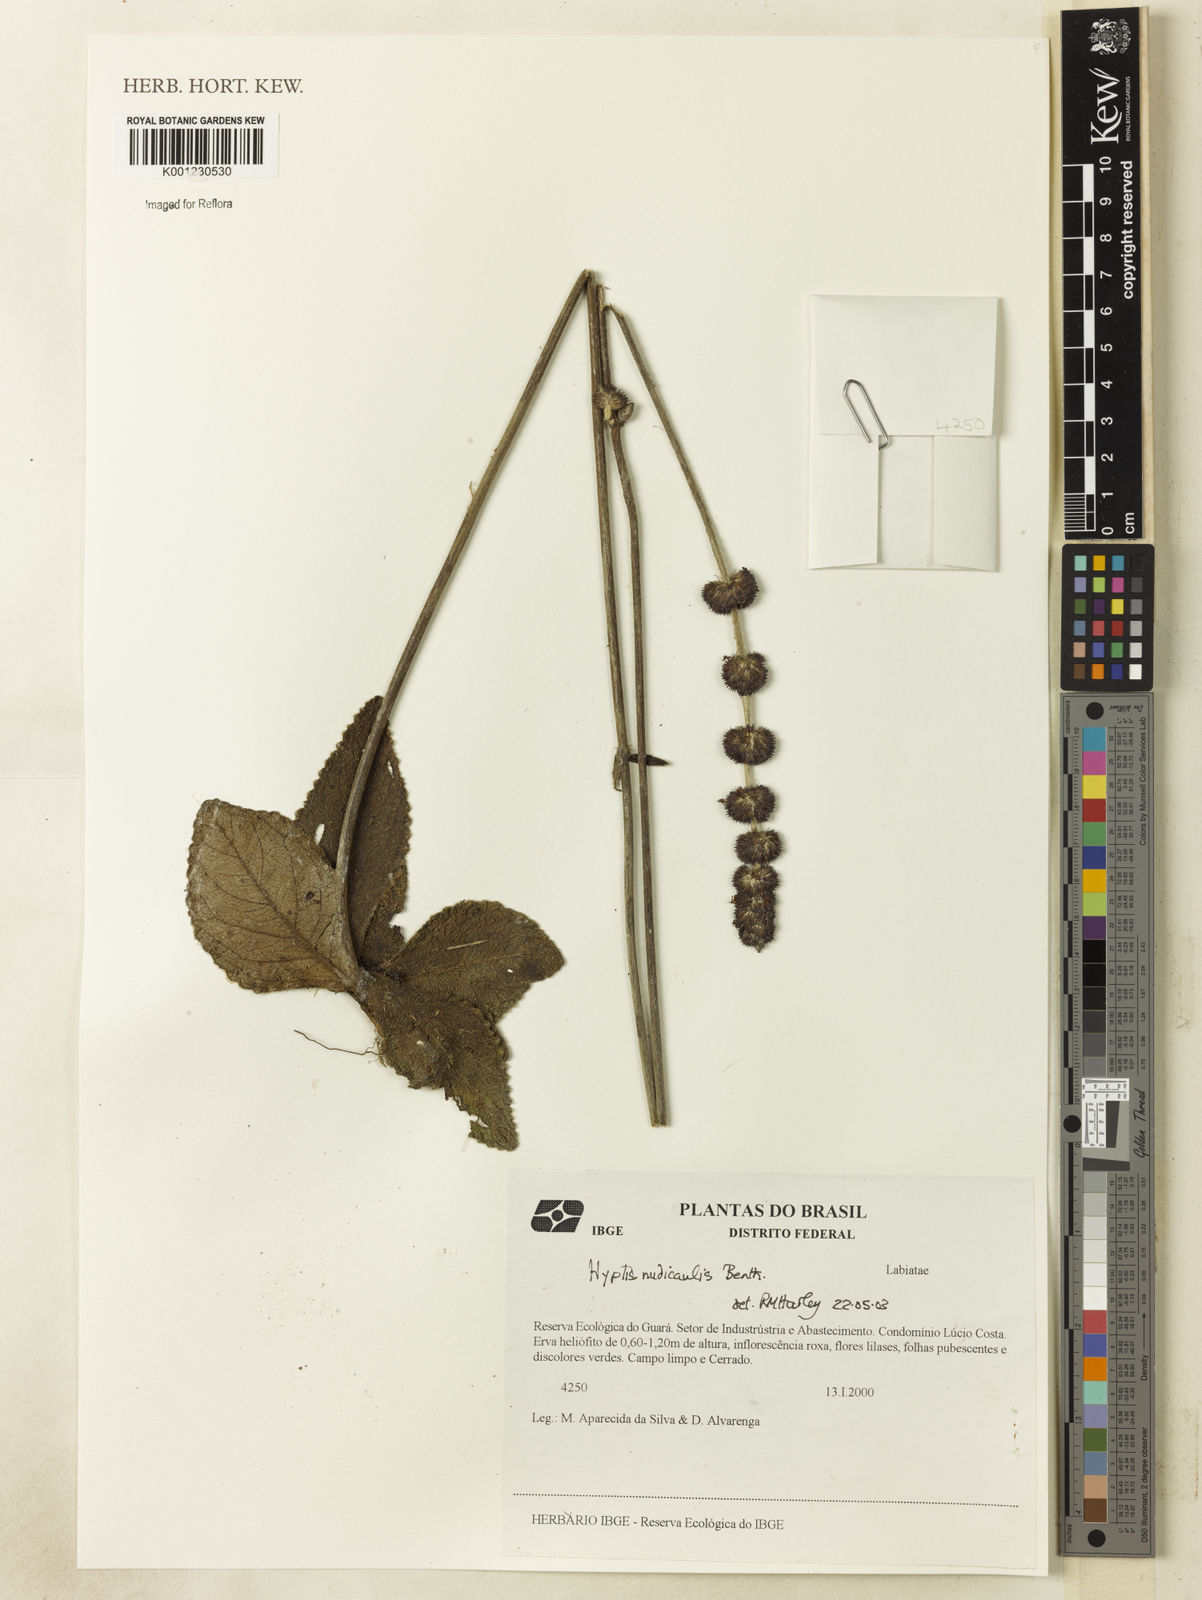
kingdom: Plantae
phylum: Tracheophyta
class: Magnoliopsida
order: Lamiales
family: Lamiaceae
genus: Hyptis
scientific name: Hyptis nudicaulis
